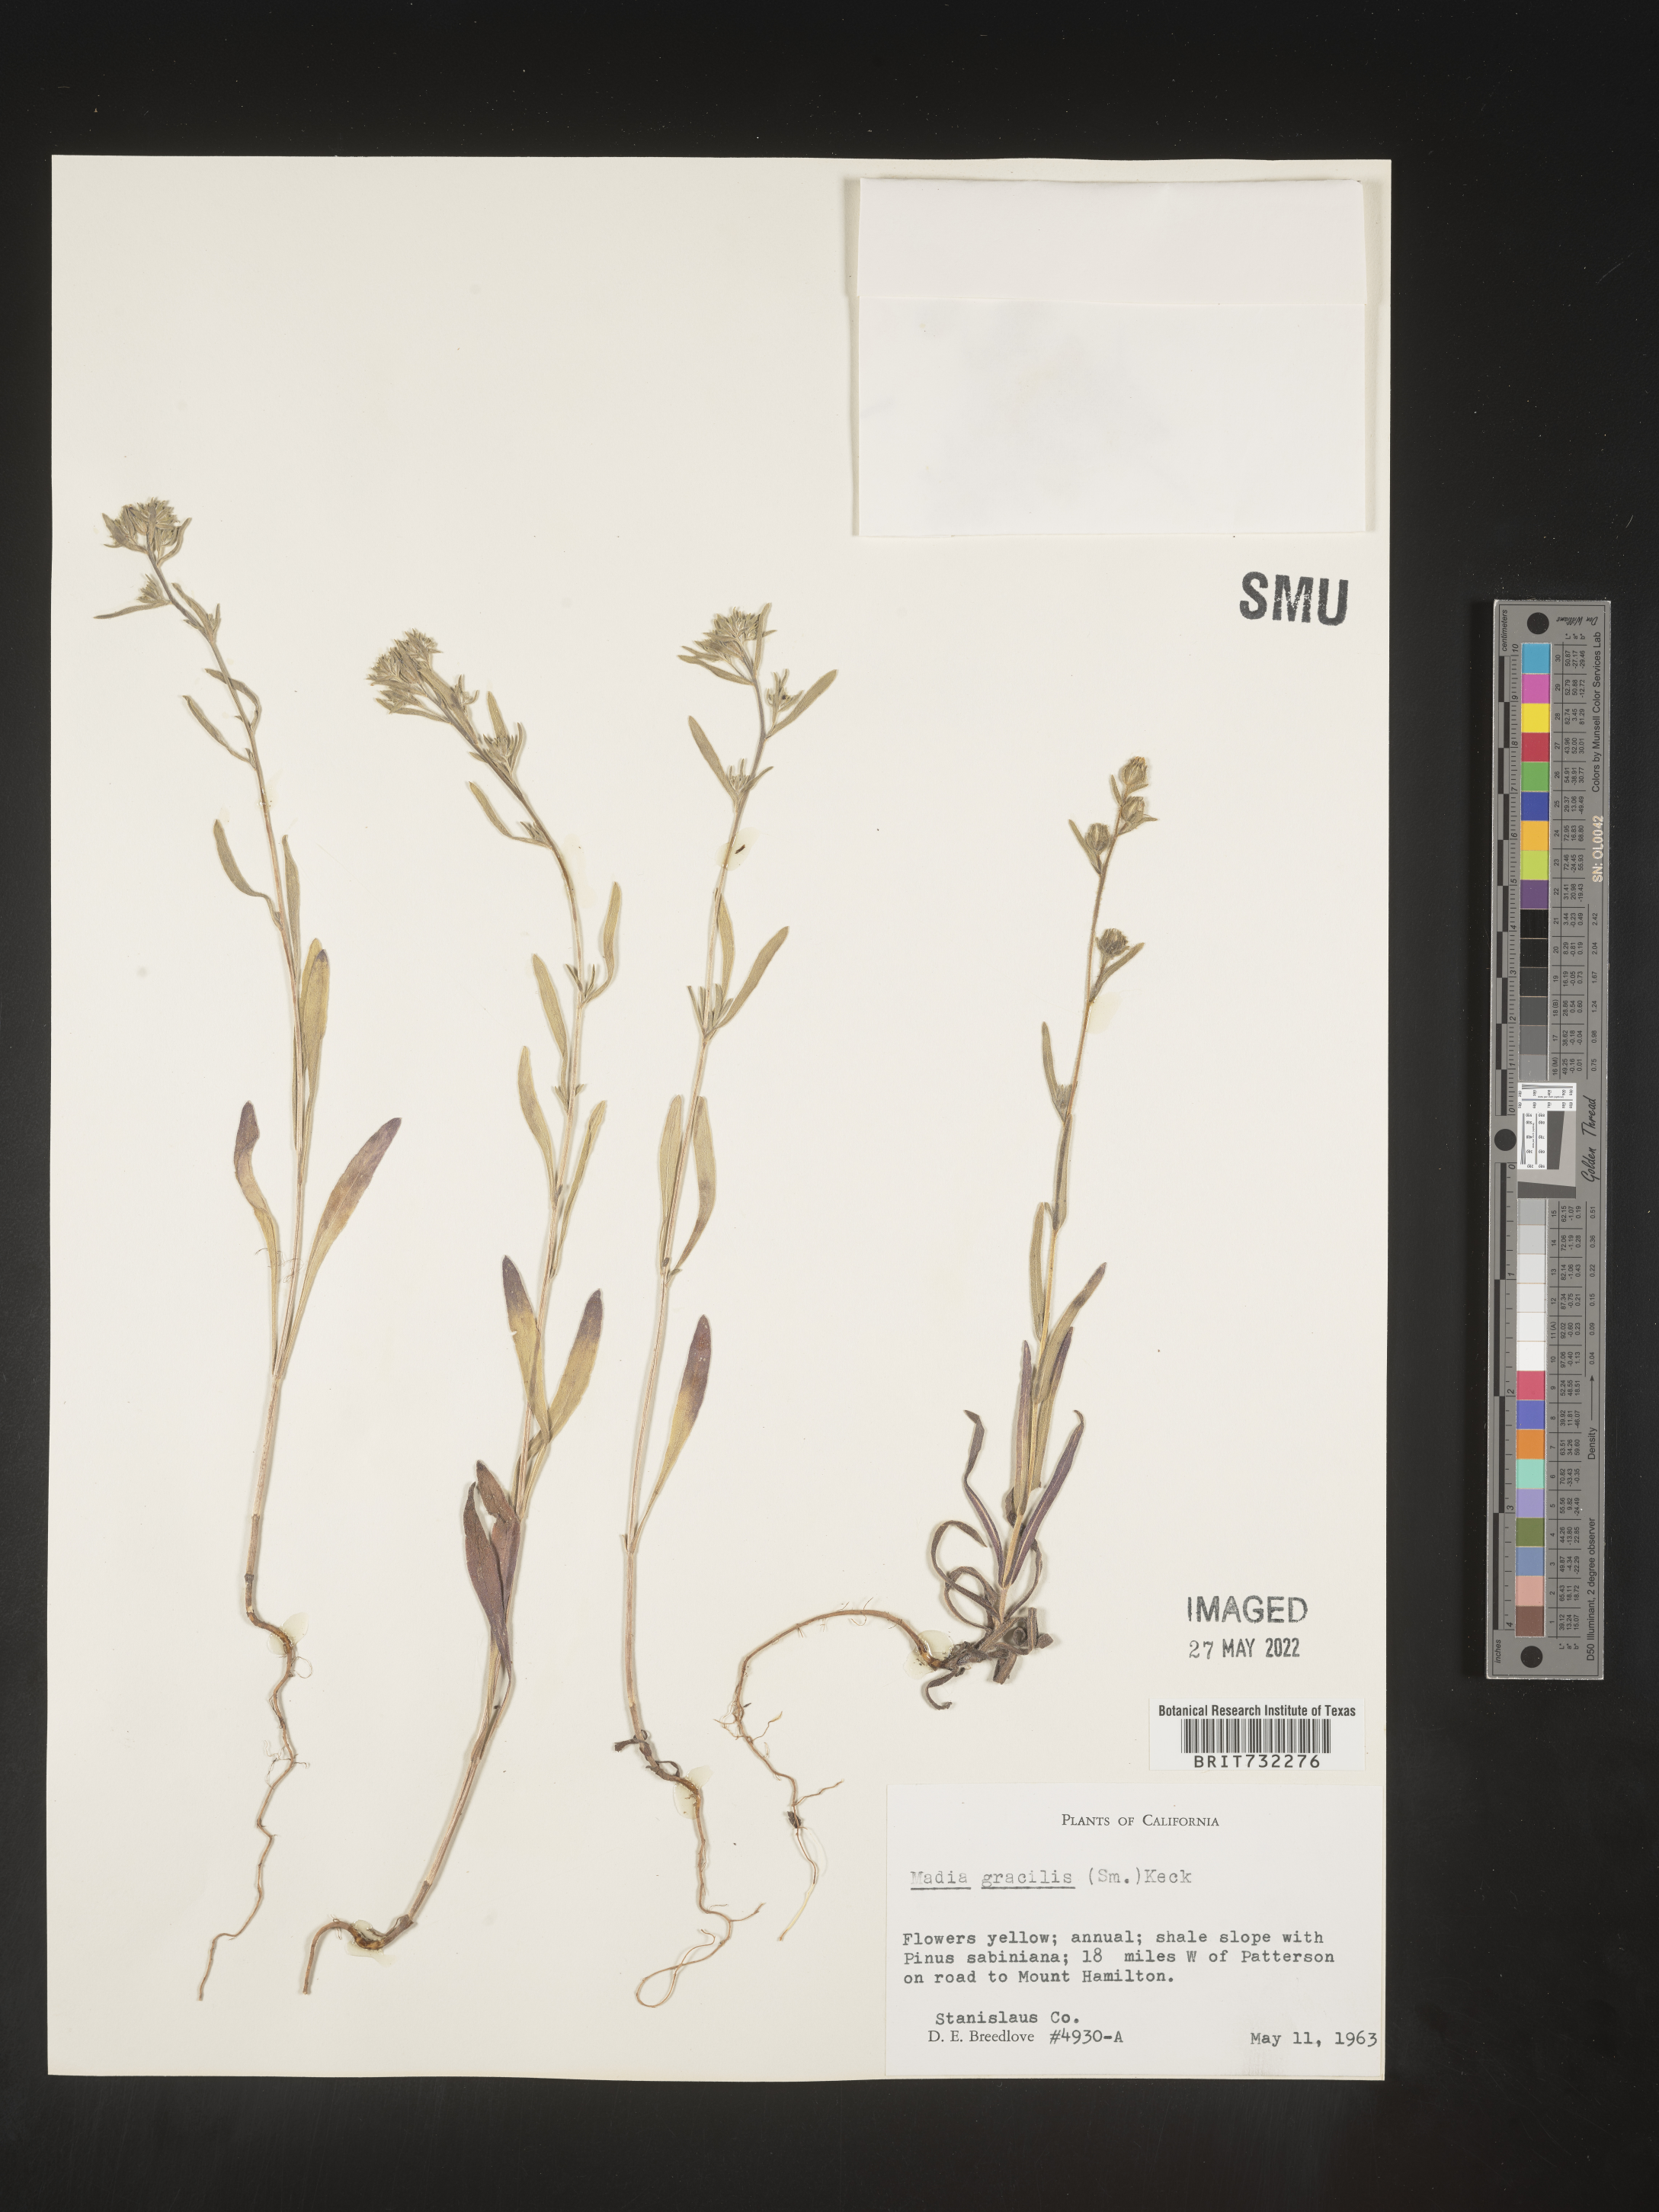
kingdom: Plantae
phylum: Tracheophyta
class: Magnoliopsida
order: Asterales
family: Asteraceae
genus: Madia
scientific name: Madia gracilis
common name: Grassy tarweed
